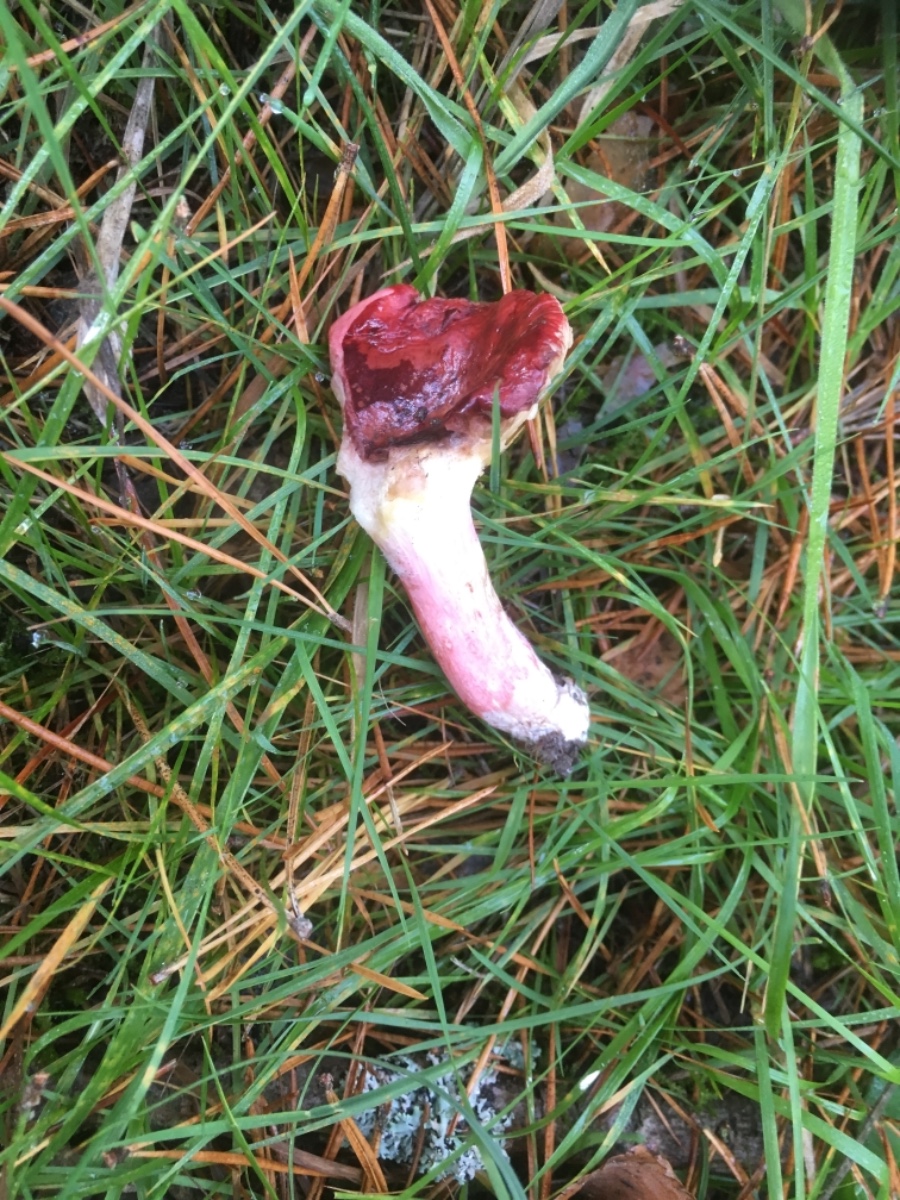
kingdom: Fungi
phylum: Basidiomycota
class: Agaricomycetes
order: Russulales
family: Russulaceae
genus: Russula
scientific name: Russula xerampelina
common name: hummer-skørhat
